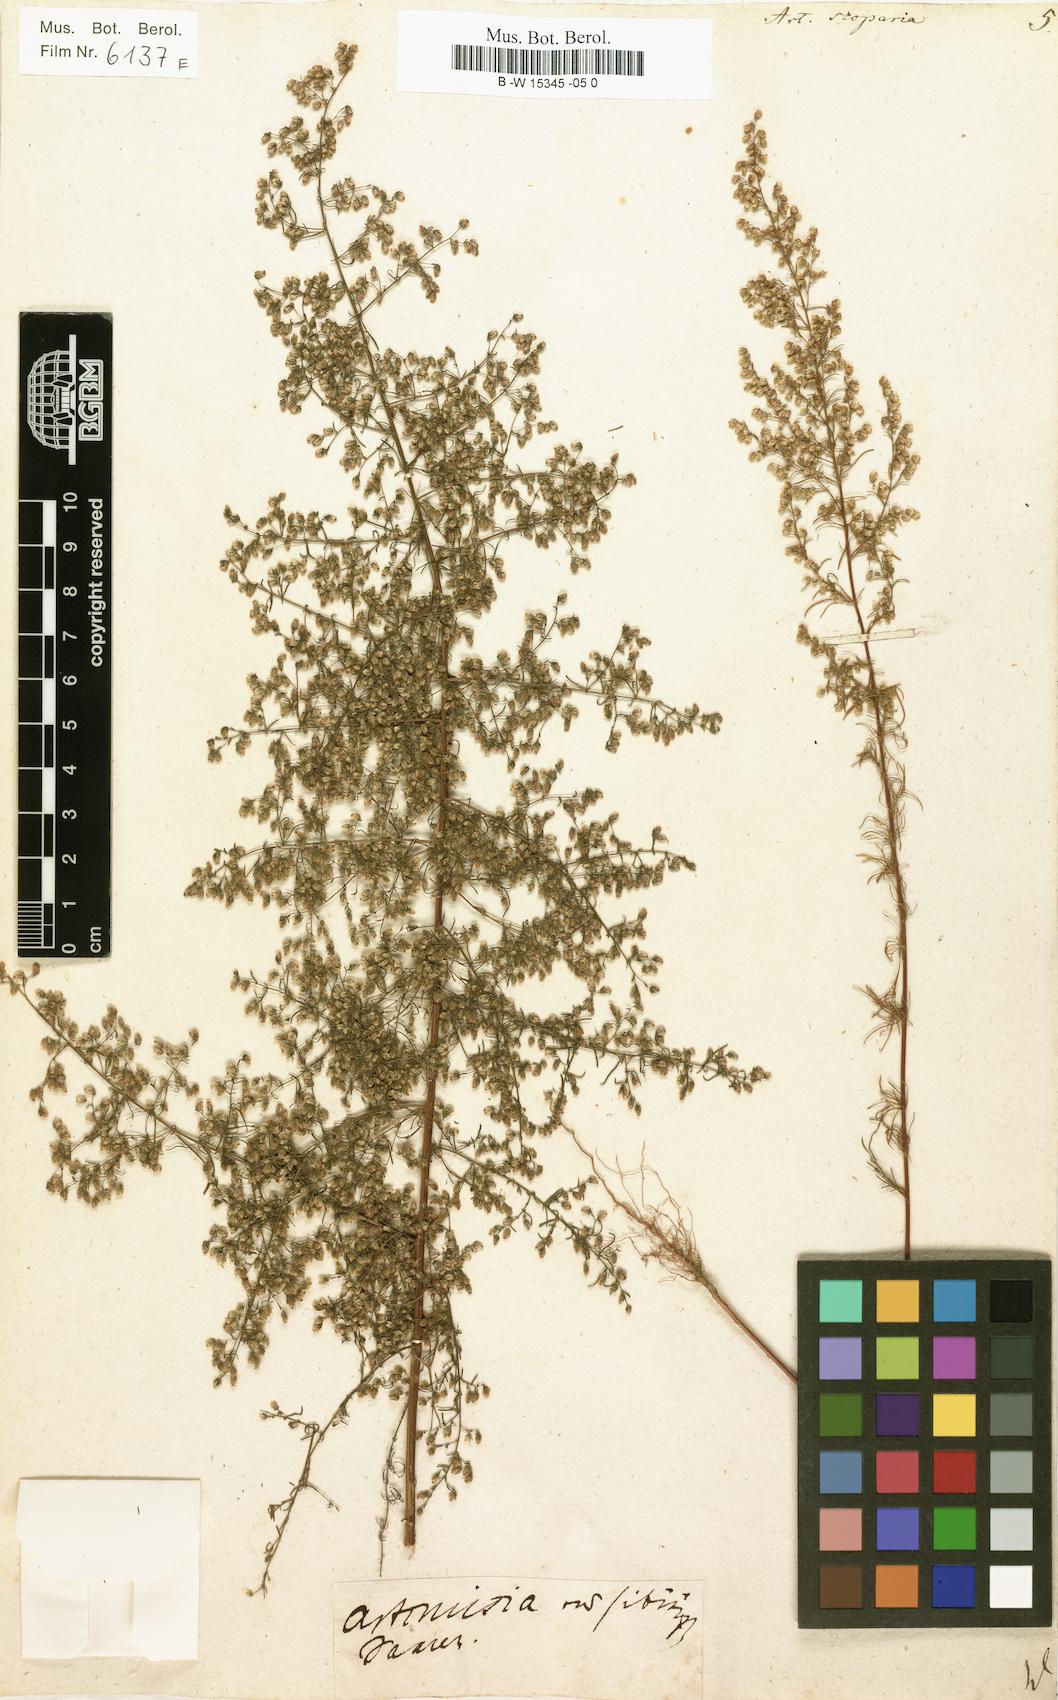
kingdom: Plantae
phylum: Tracheophyta
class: Magnoliopsida
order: Asterales
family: Asteraceae
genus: Artemisia
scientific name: Artemisia scoparia
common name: Redstem wormwood
